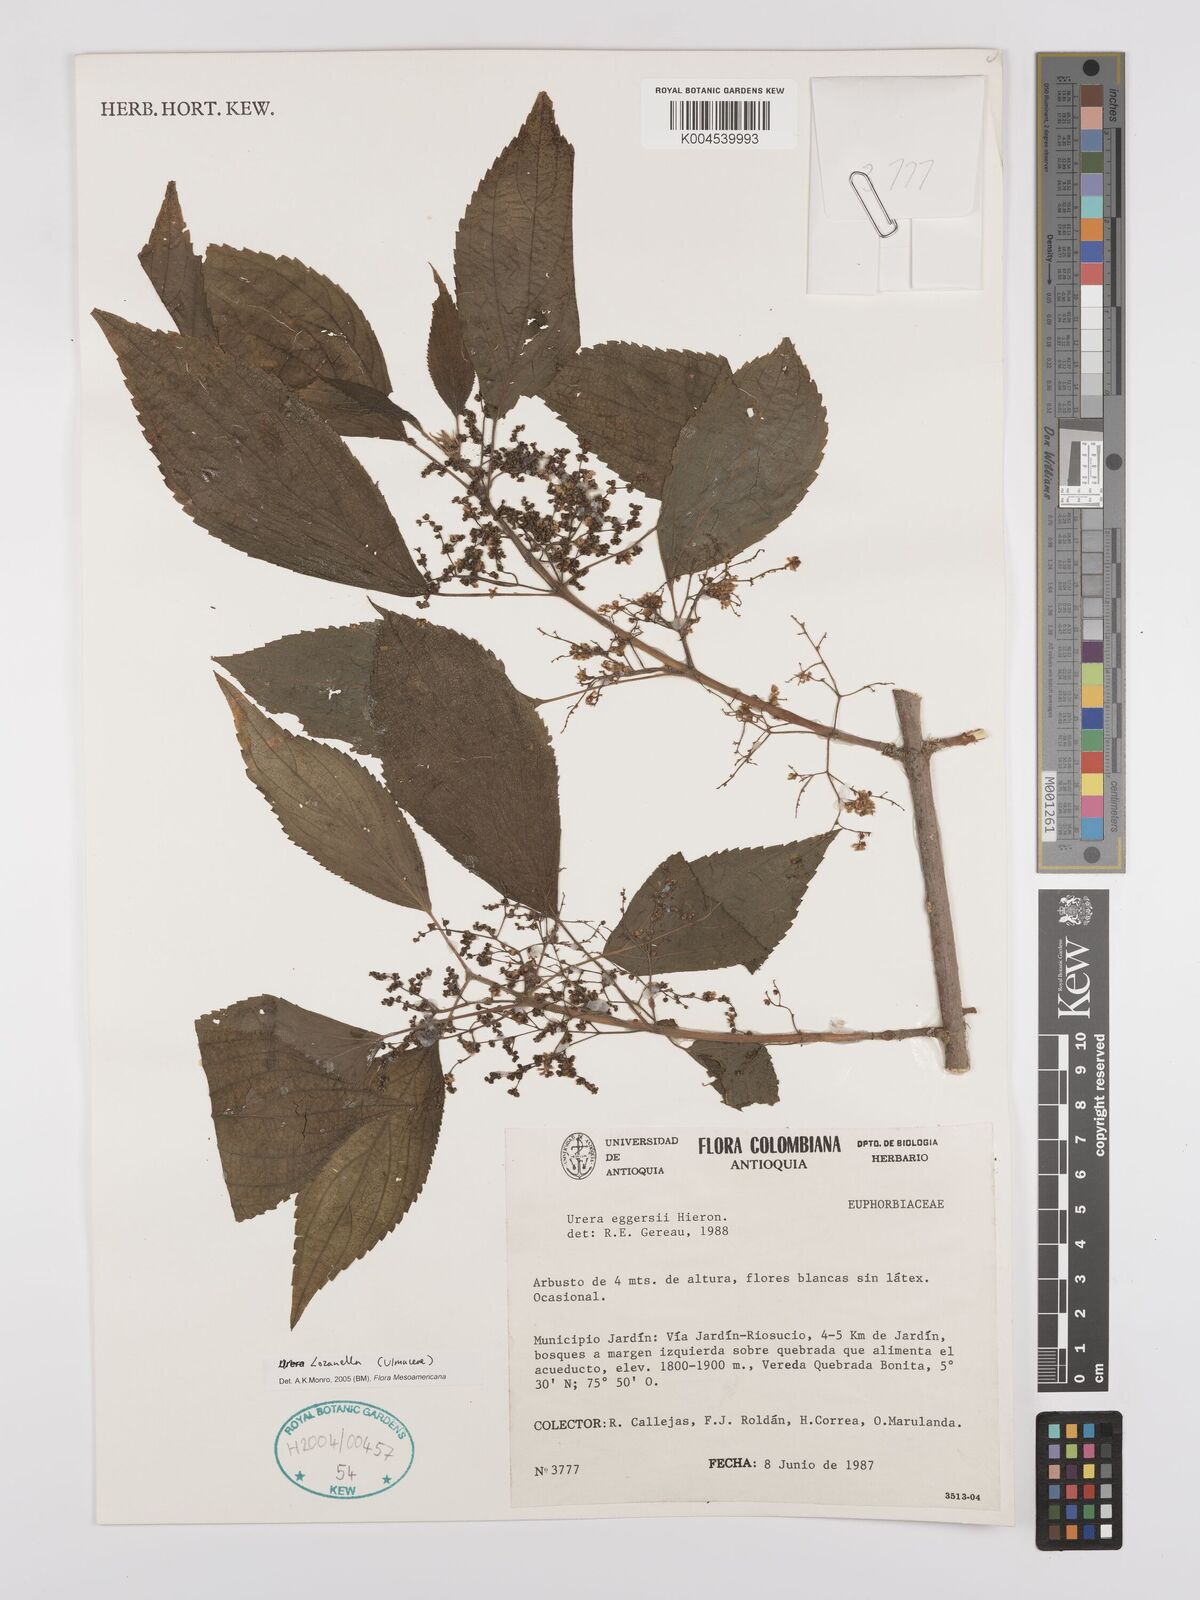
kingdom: Plantae
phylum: Tracheophyta
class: Magnoliopsida
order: Rosales
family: Cannabaceae
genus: Lozanella
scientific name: Lozanella enantiophylla
